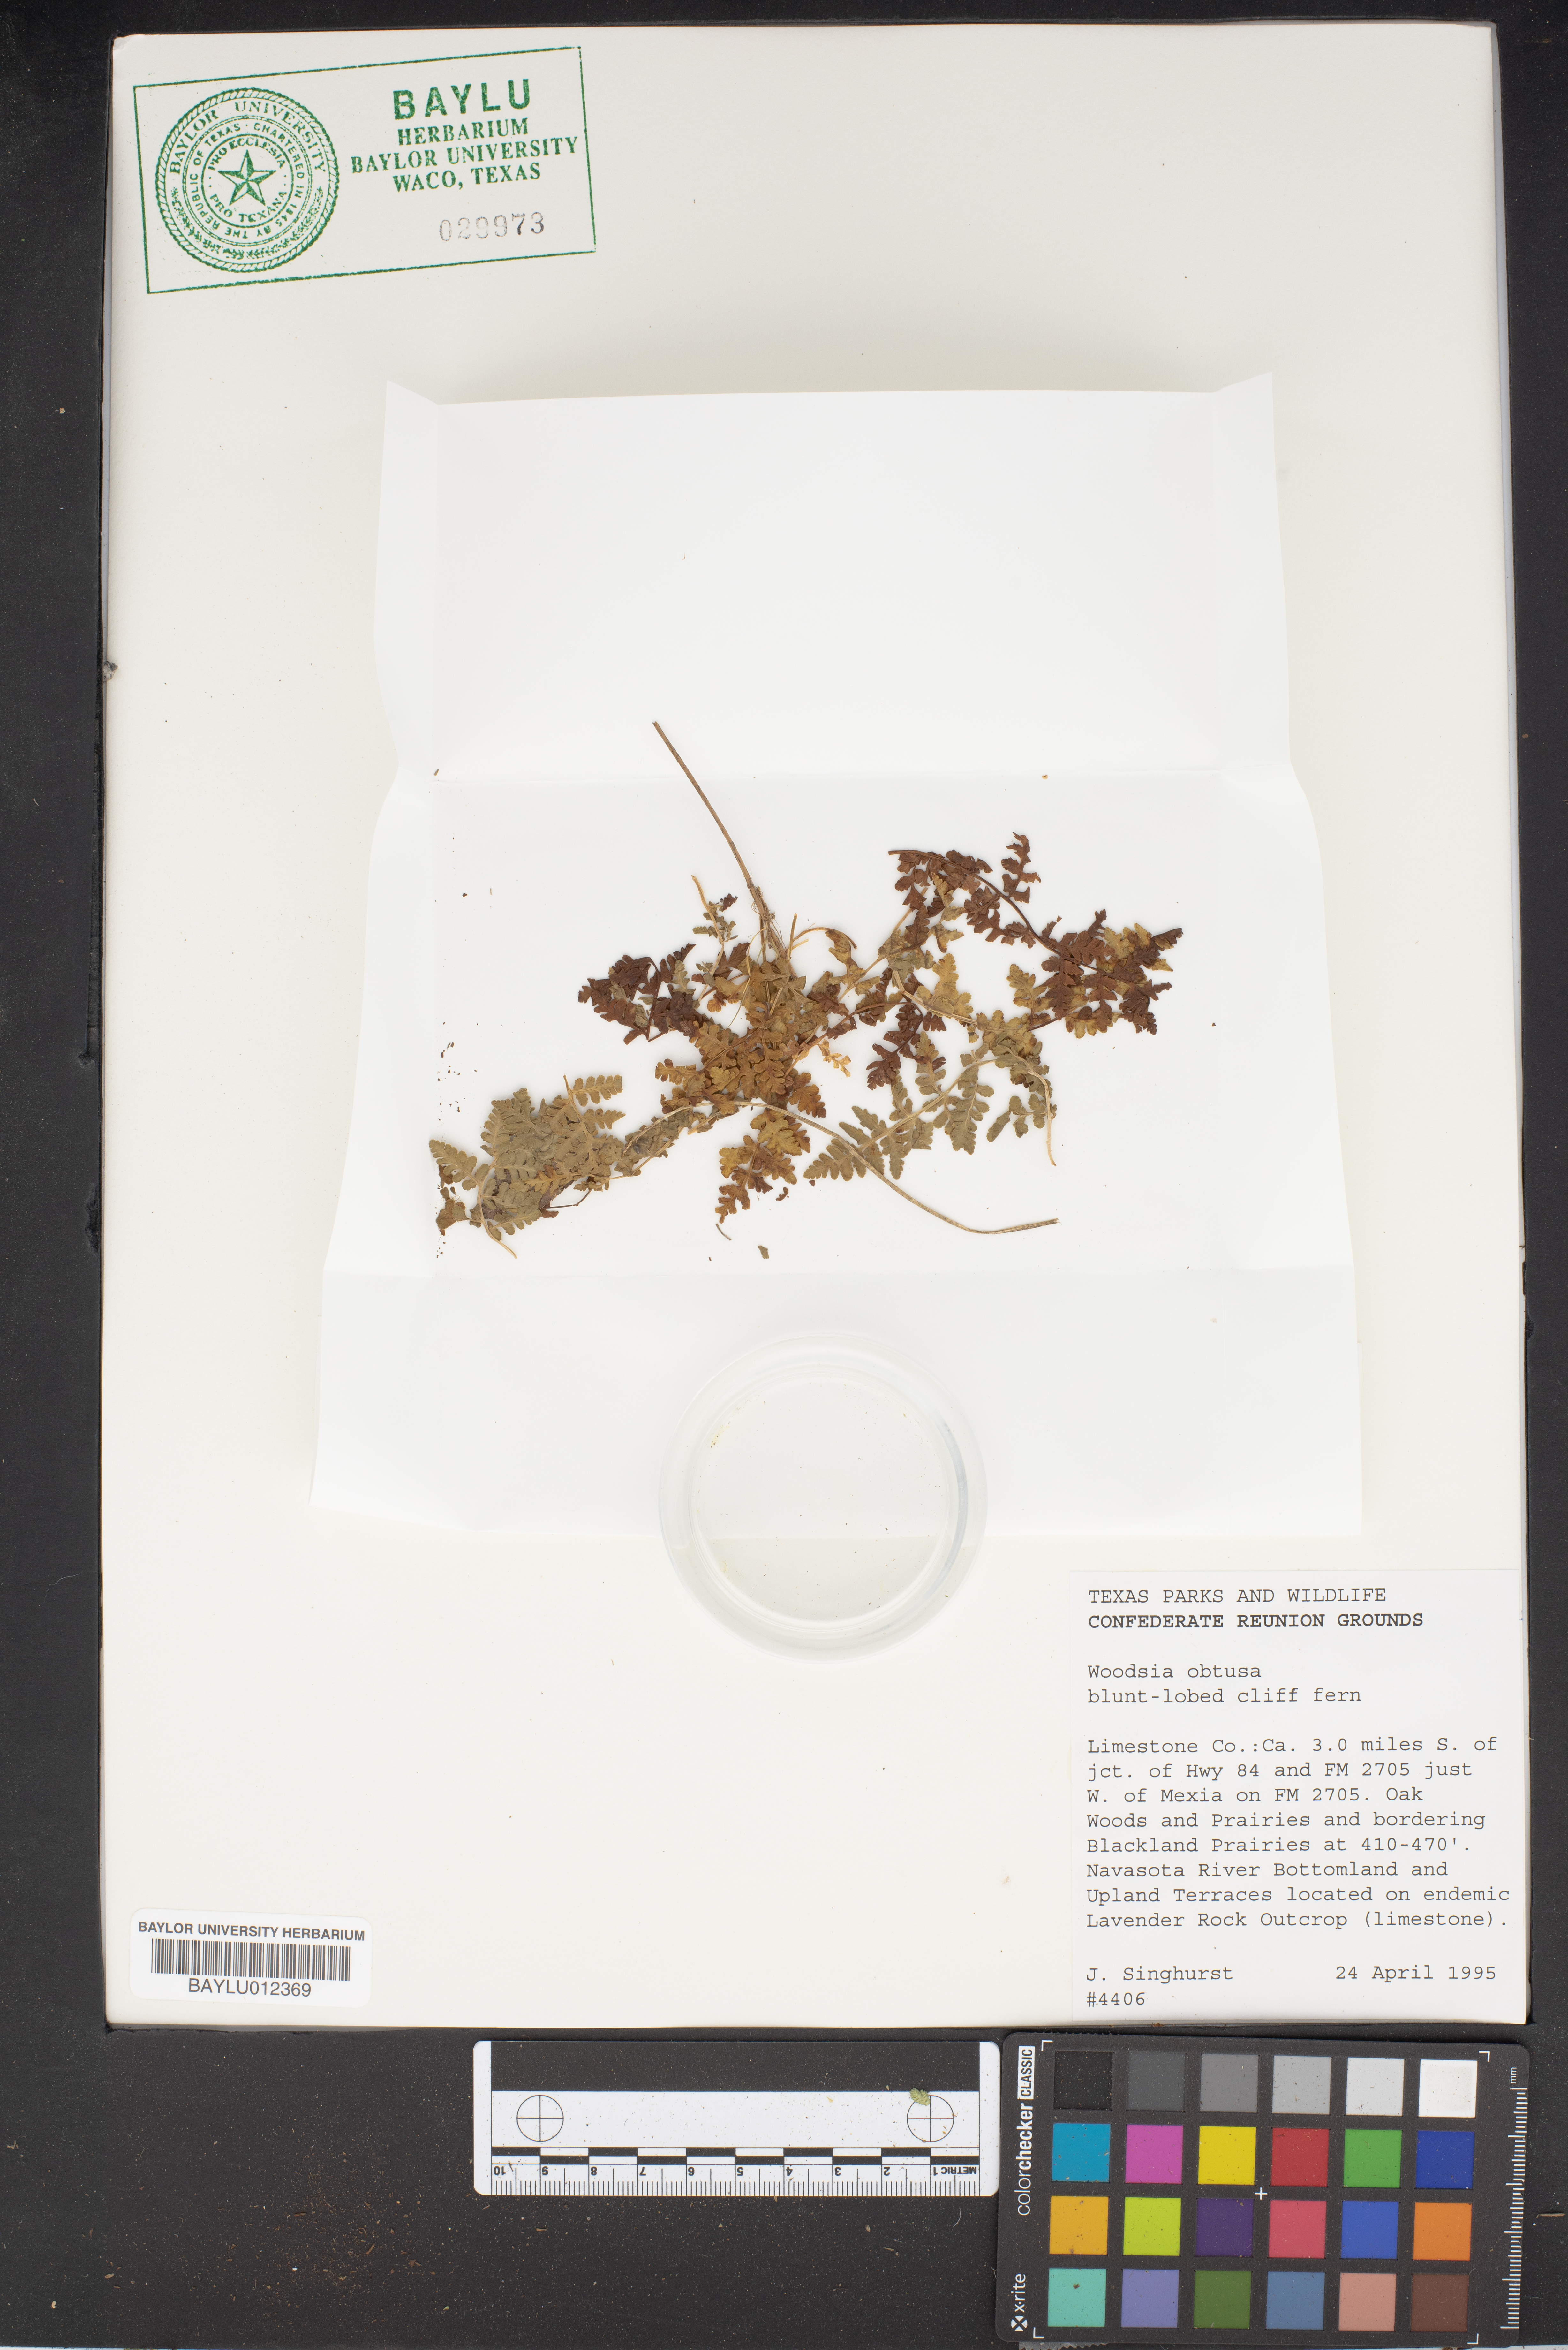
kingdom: Plantae
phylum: Tracheophyta
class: Polypodiopsida
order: Polypodiales
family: Woodsiaceae
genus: Physematium
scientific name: Physematium obtusum
